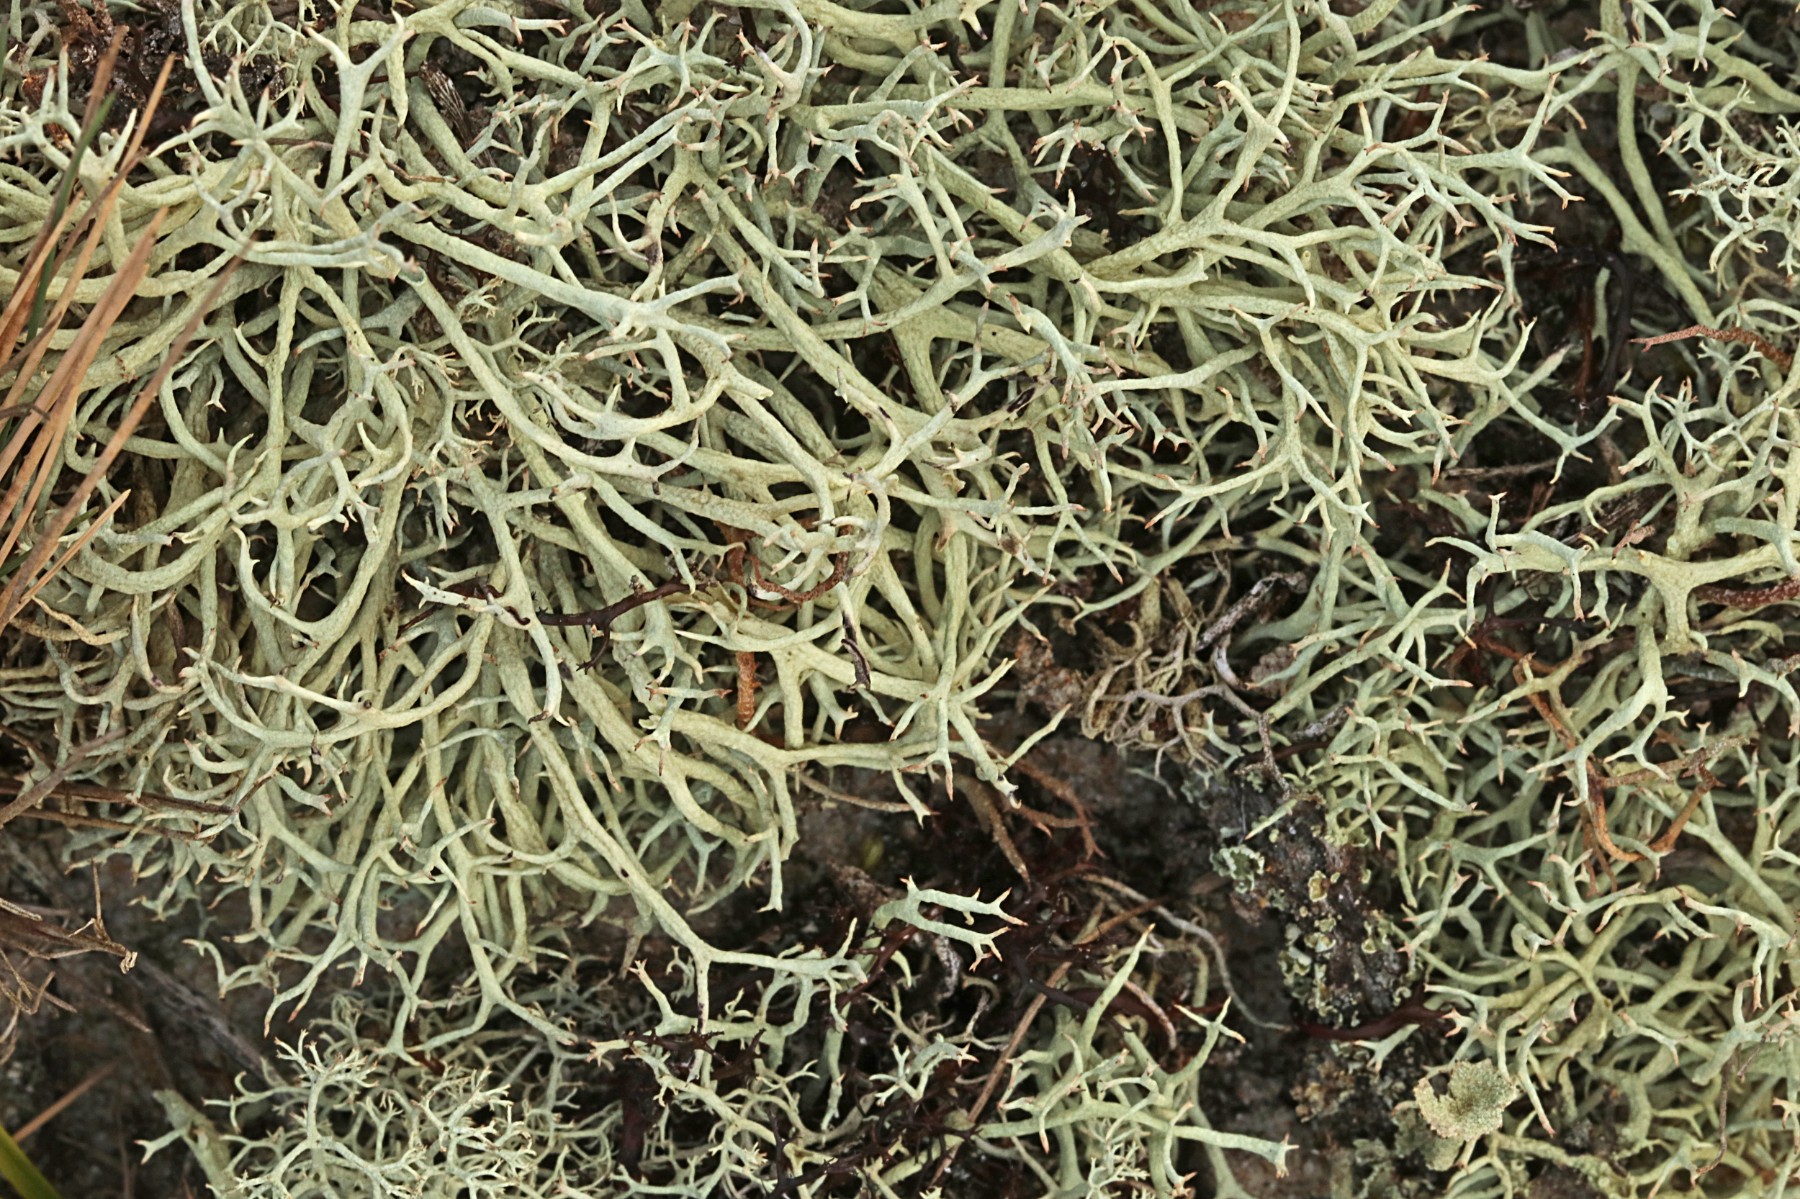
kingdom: Fungi
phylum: Ascomycota
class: Lecanoromycetes
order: Lecanorales
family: Cladoniaceae
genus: Cladonia
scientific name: Cladonia zopfii
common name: klit-bægerlav
